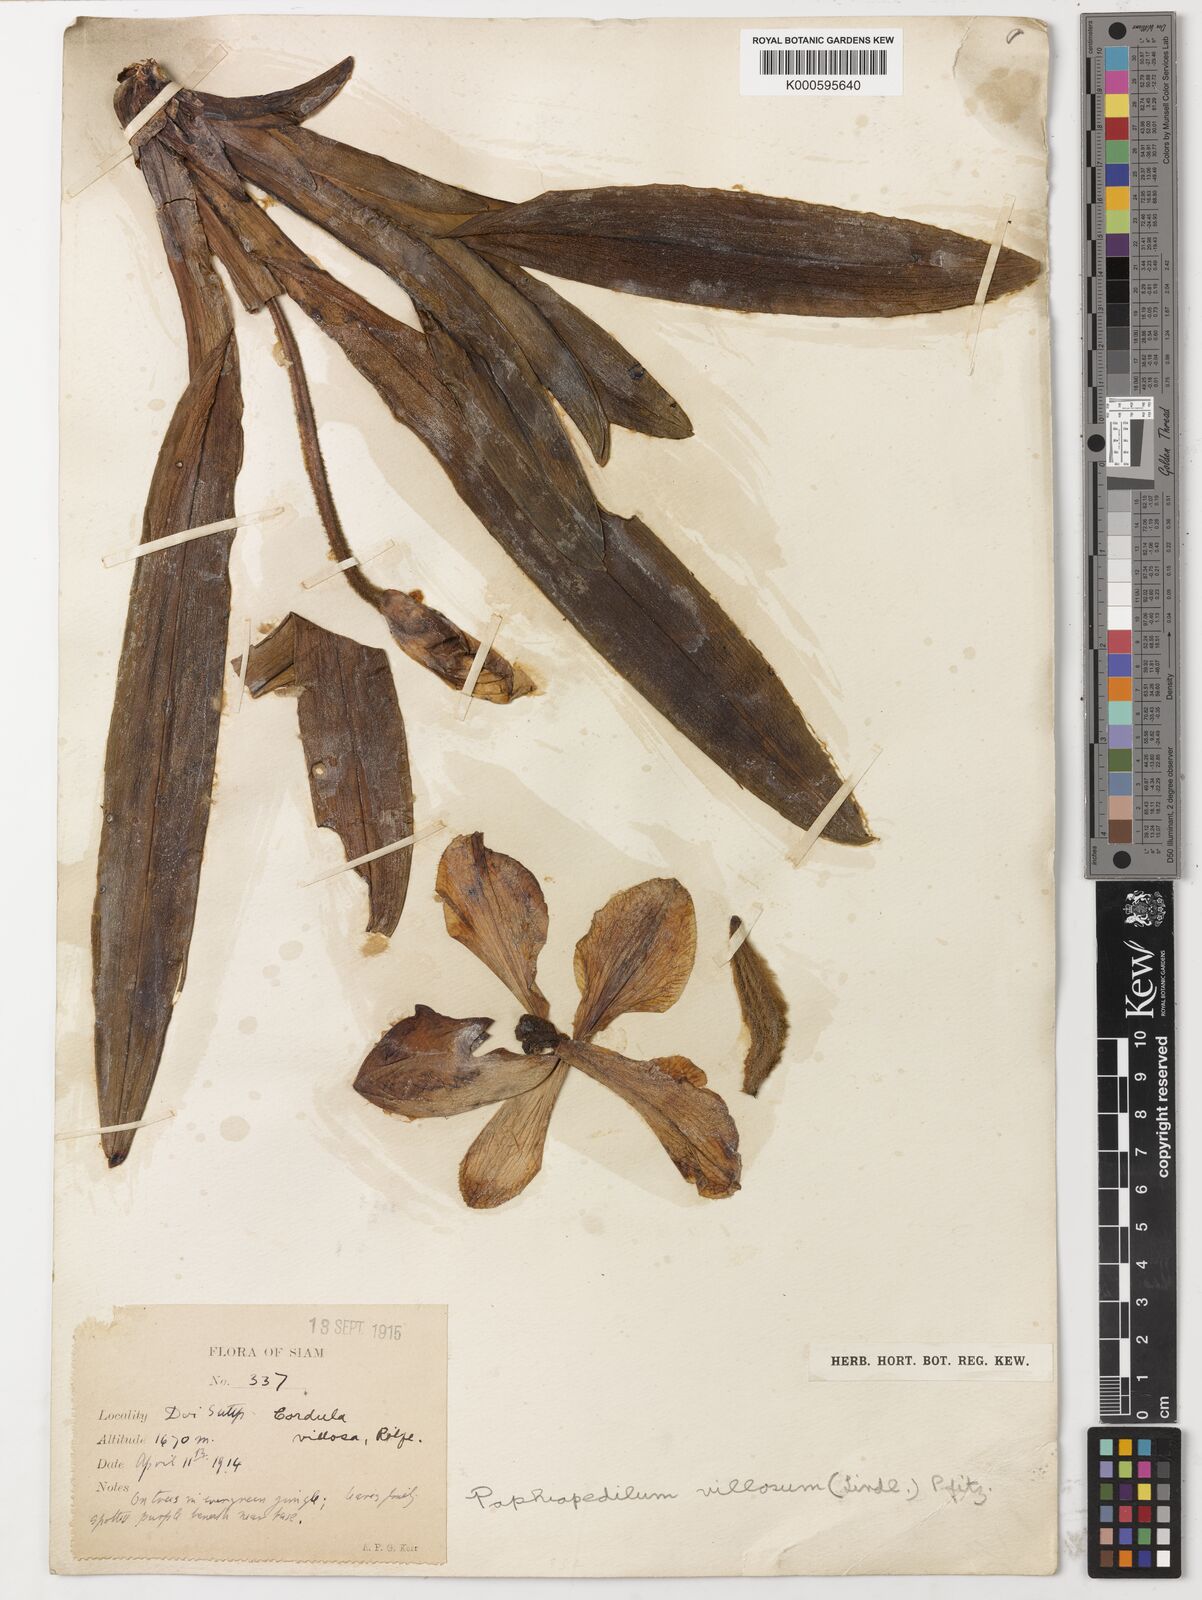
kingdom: Plantae
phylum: Tracheophyta
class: Liliopsida
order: Asparagales
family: Orchidaceae
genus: Paphiopedilum
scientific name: Paphiopedilum
